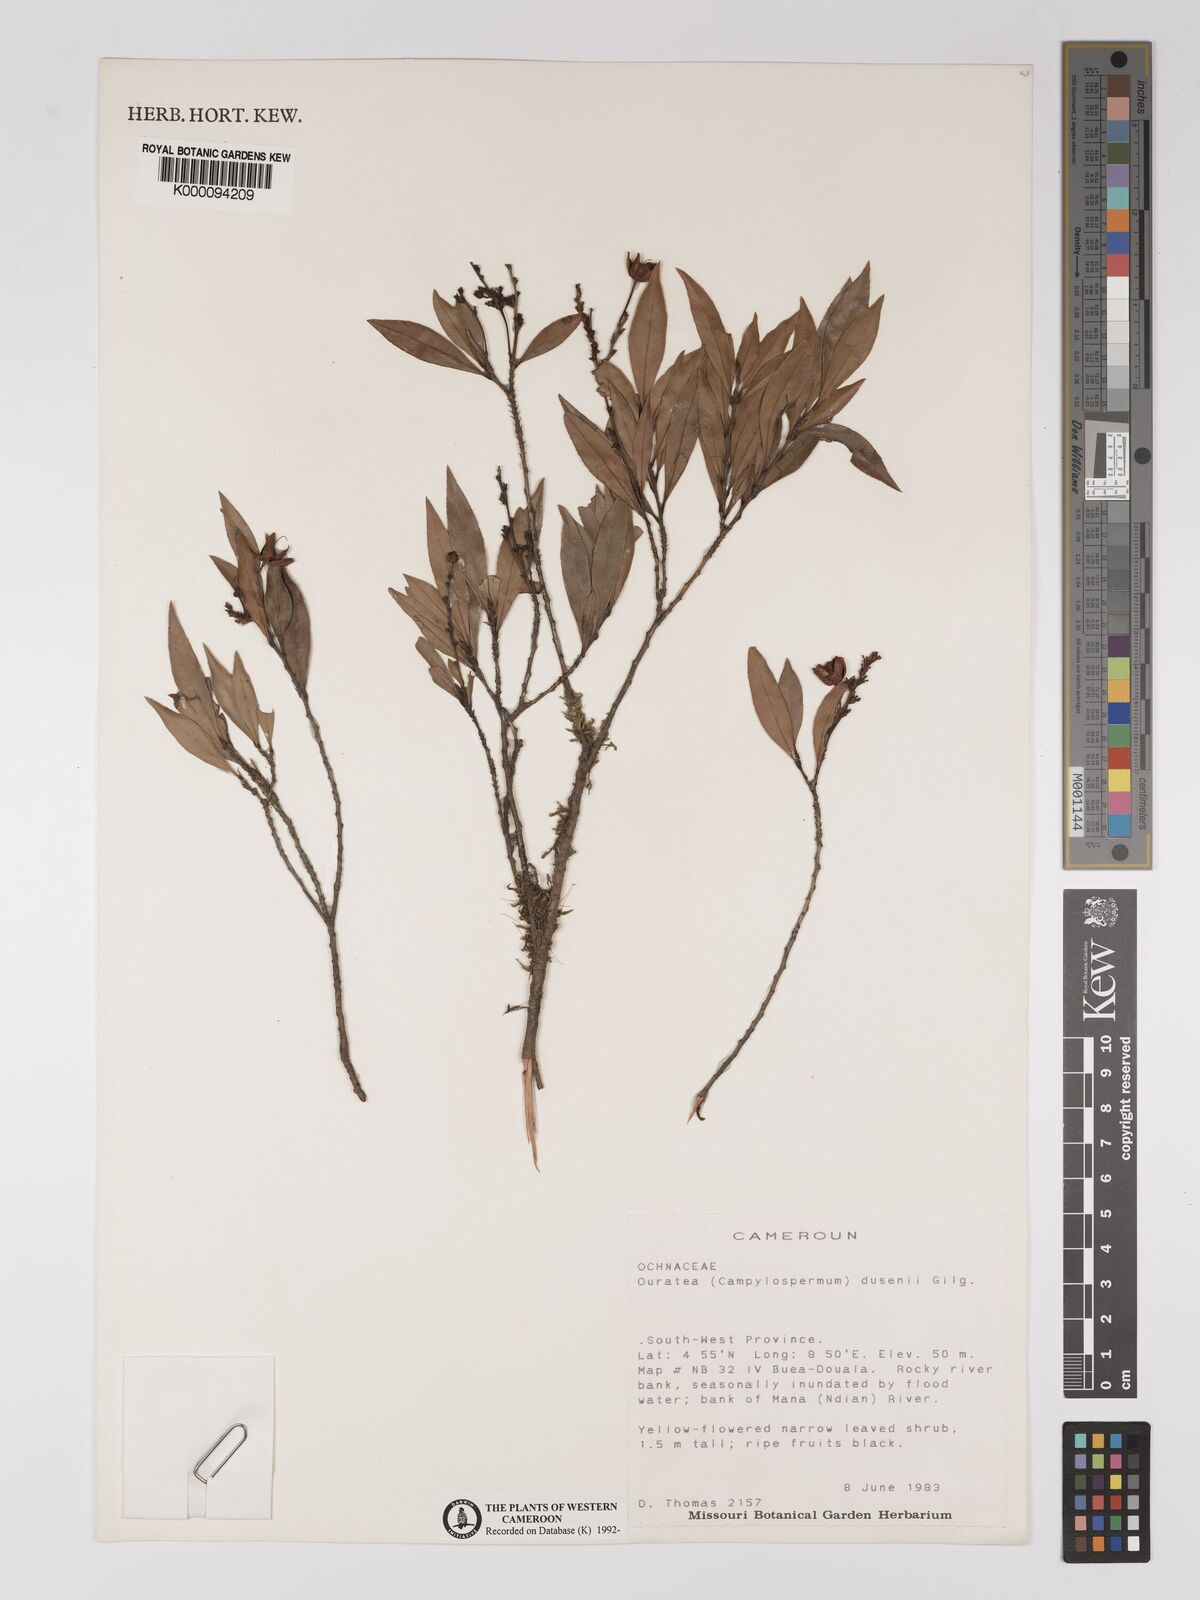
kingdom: Plantae
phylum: Tracheophyta
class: Magnoliopsida
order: Malpighiales
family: Ochnaceae
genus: Campylospermum
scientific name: Campylospermum dusenii
